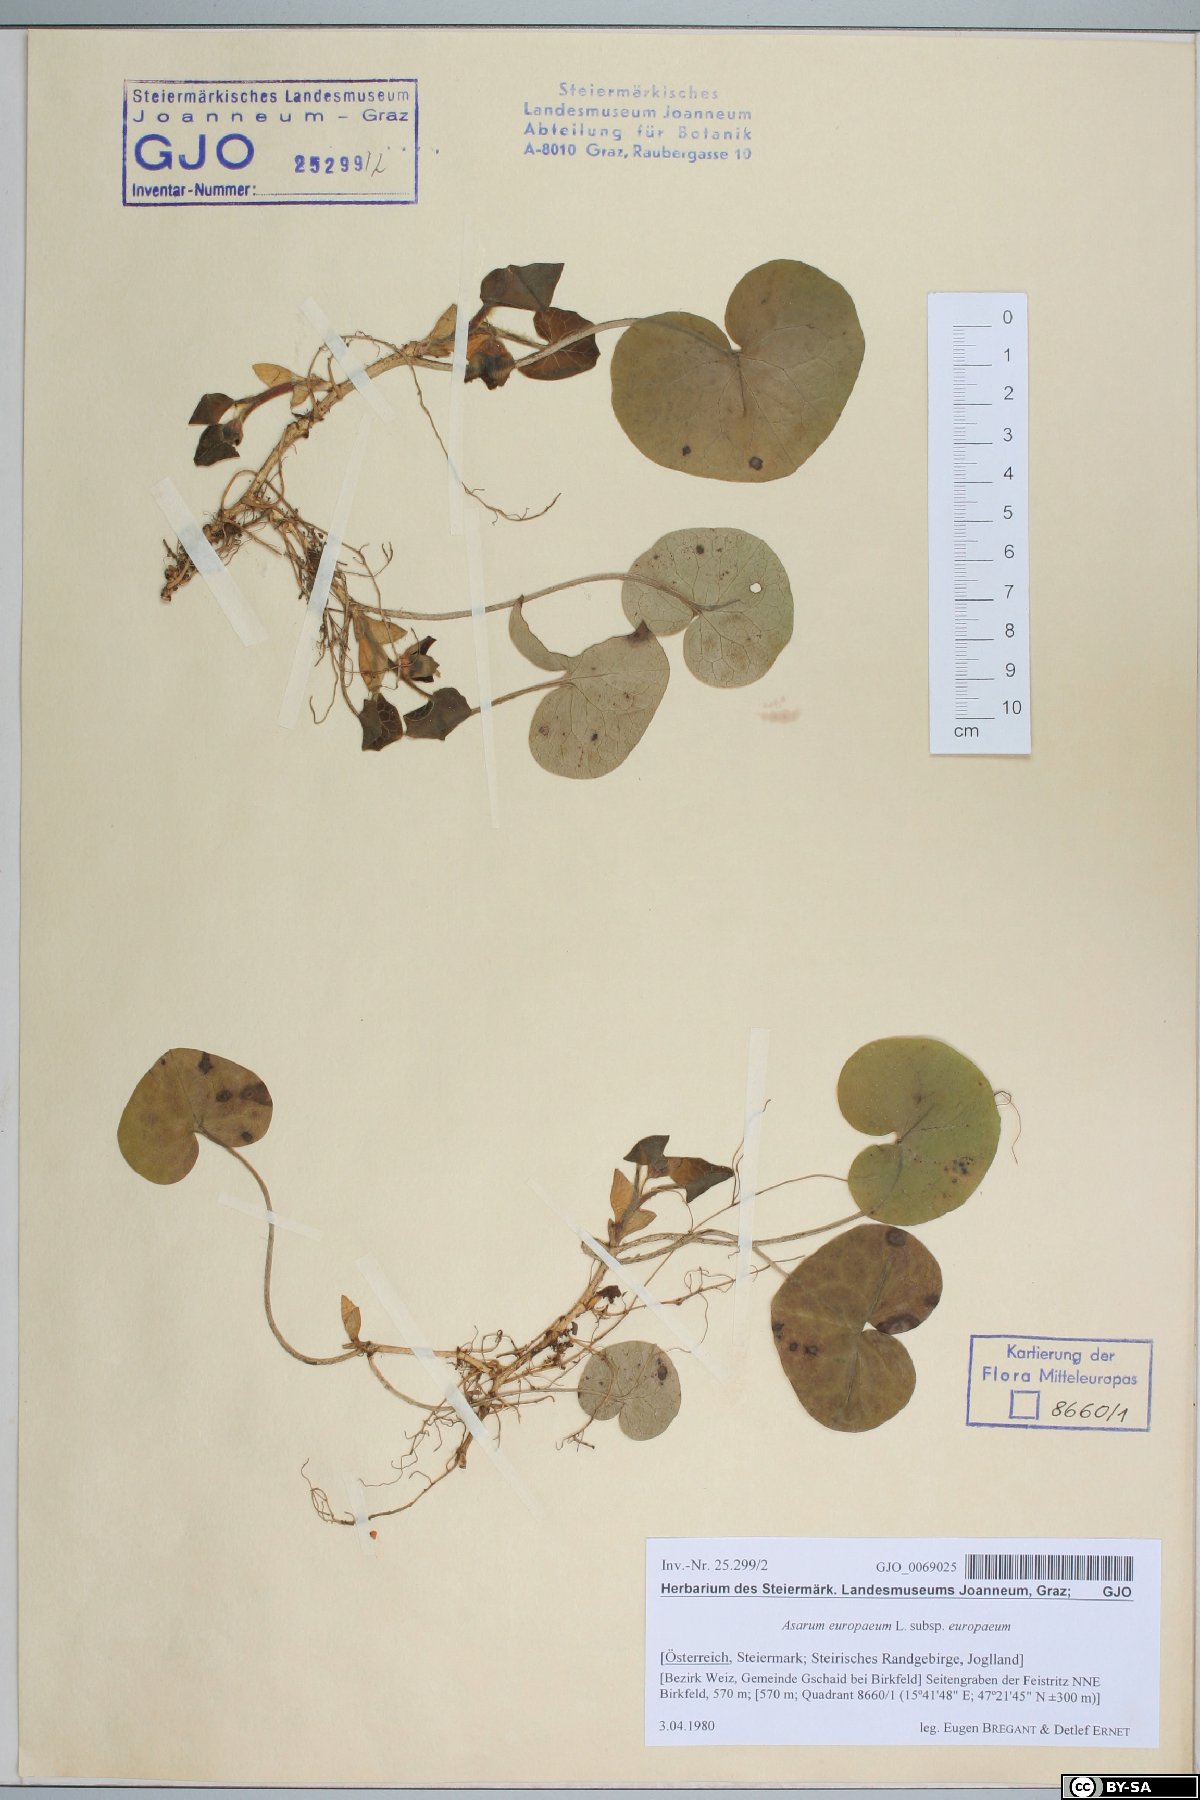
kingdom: Plantae
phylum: Tracheophyta
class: Magnoliopsida
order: Piperales
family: Aristolochiaceae
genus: Asarum
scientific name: Asarum europaeum
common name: Asarabacca
